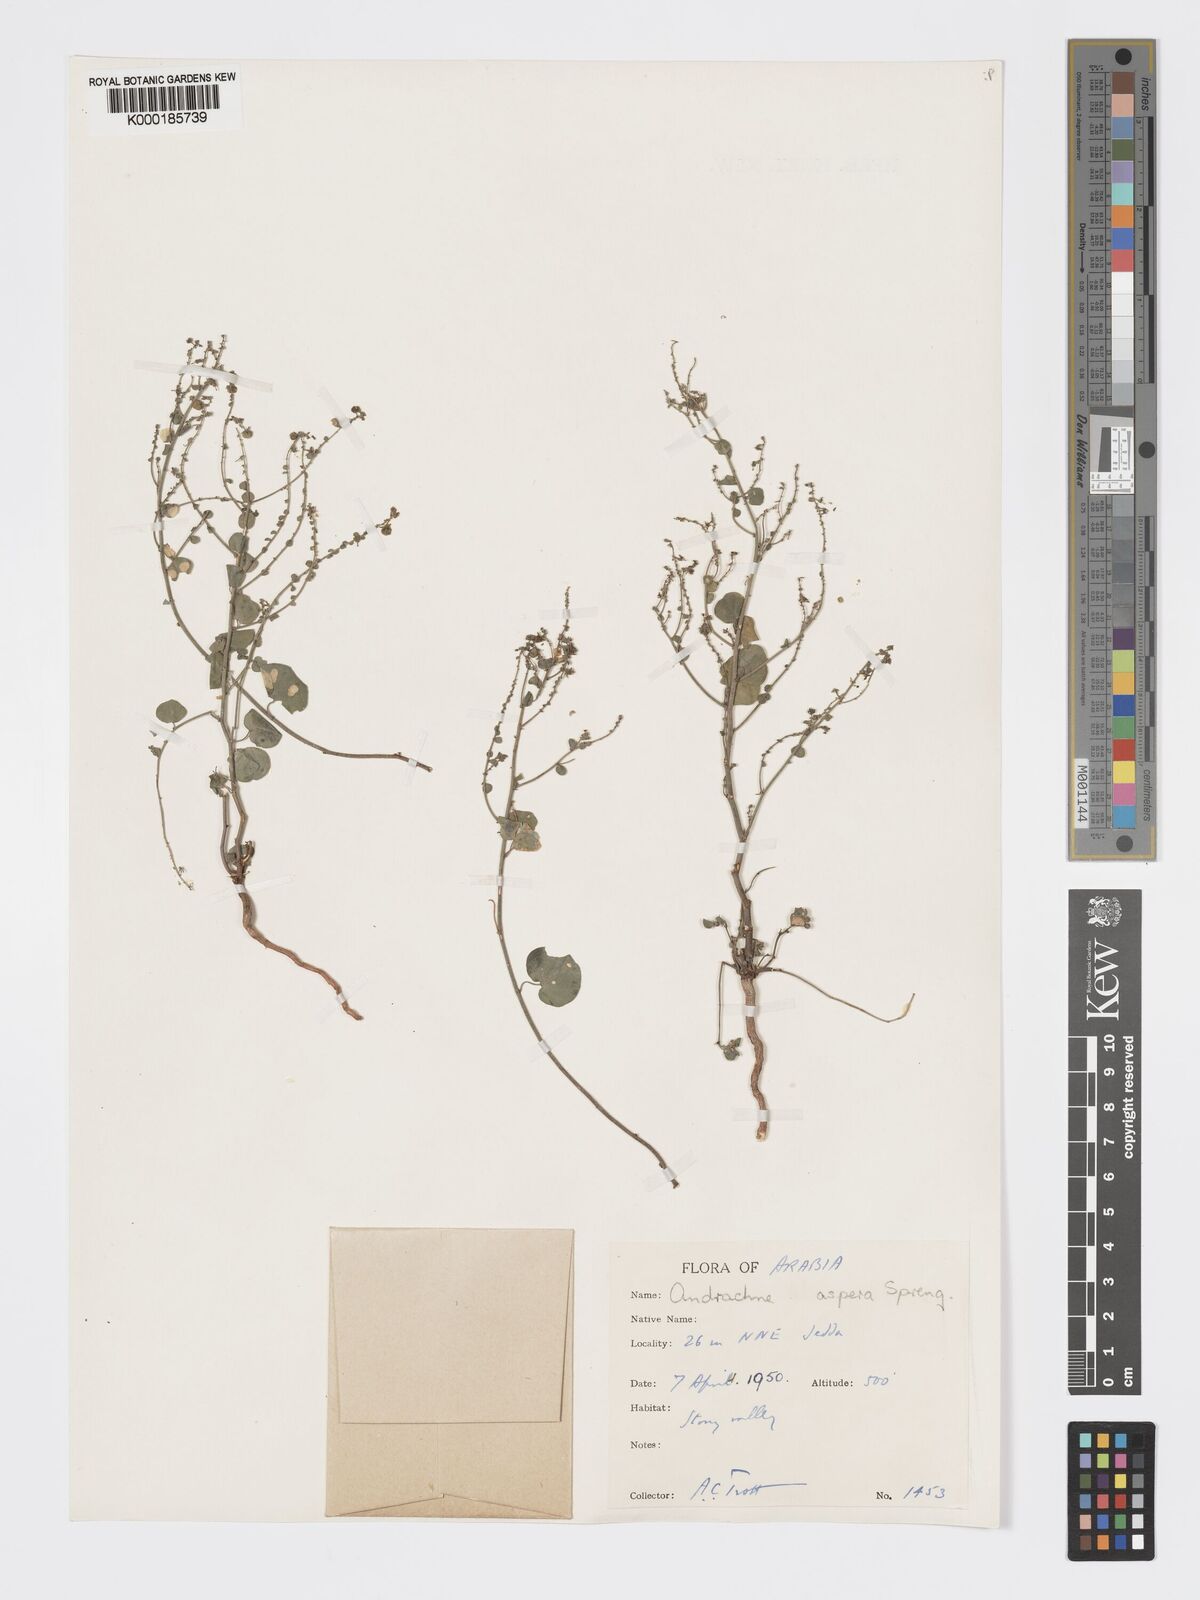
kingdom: Plantae
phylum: Tracheophyta
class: Magnoliopsida
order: Malpighiales
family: Phyllanthaceae
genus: Andrachne
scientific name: Andrachne aspera
